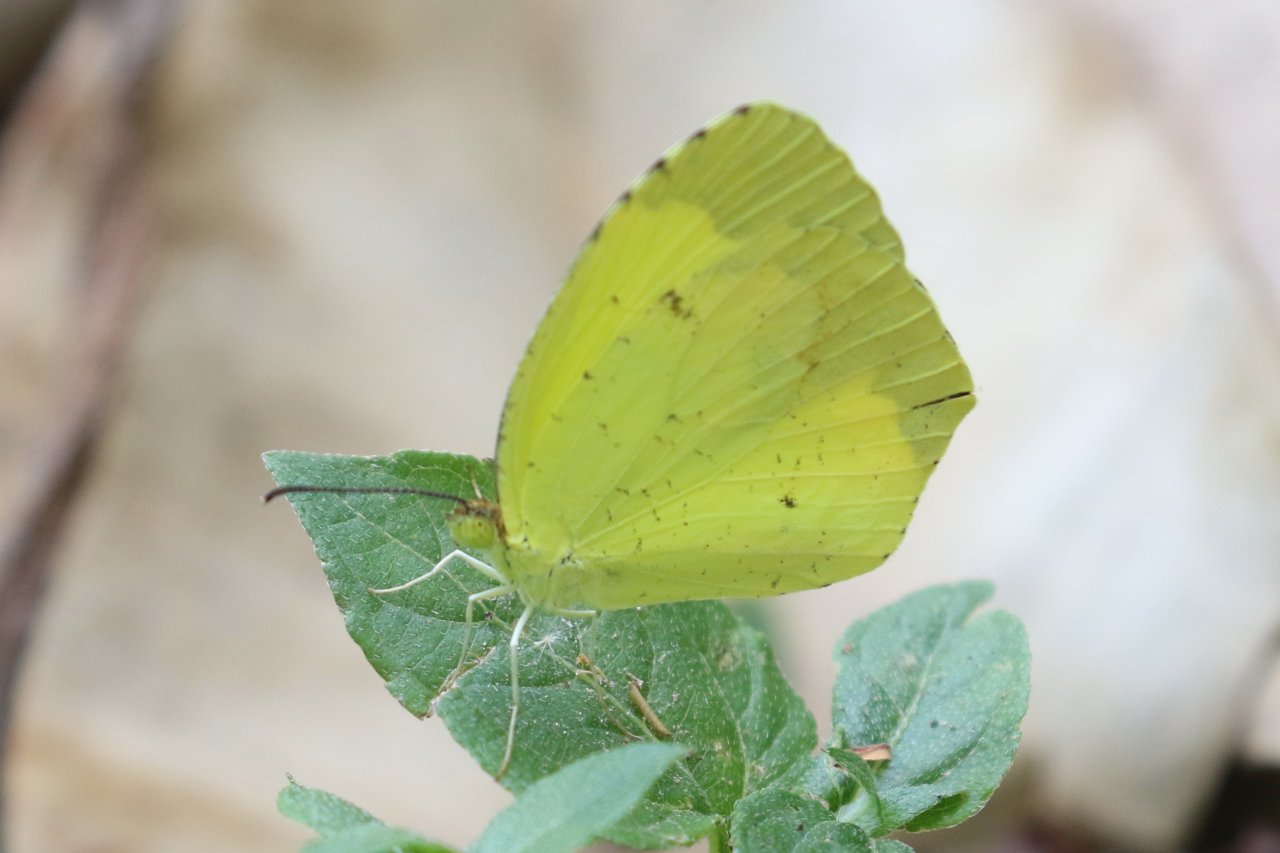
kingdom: Animalia
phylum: Arthropoda
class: Insecta
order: Lepidoptera
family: Pieridae
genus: Eurema
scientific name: Eurema boisduvaliana
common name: Boisduval's Yellow
